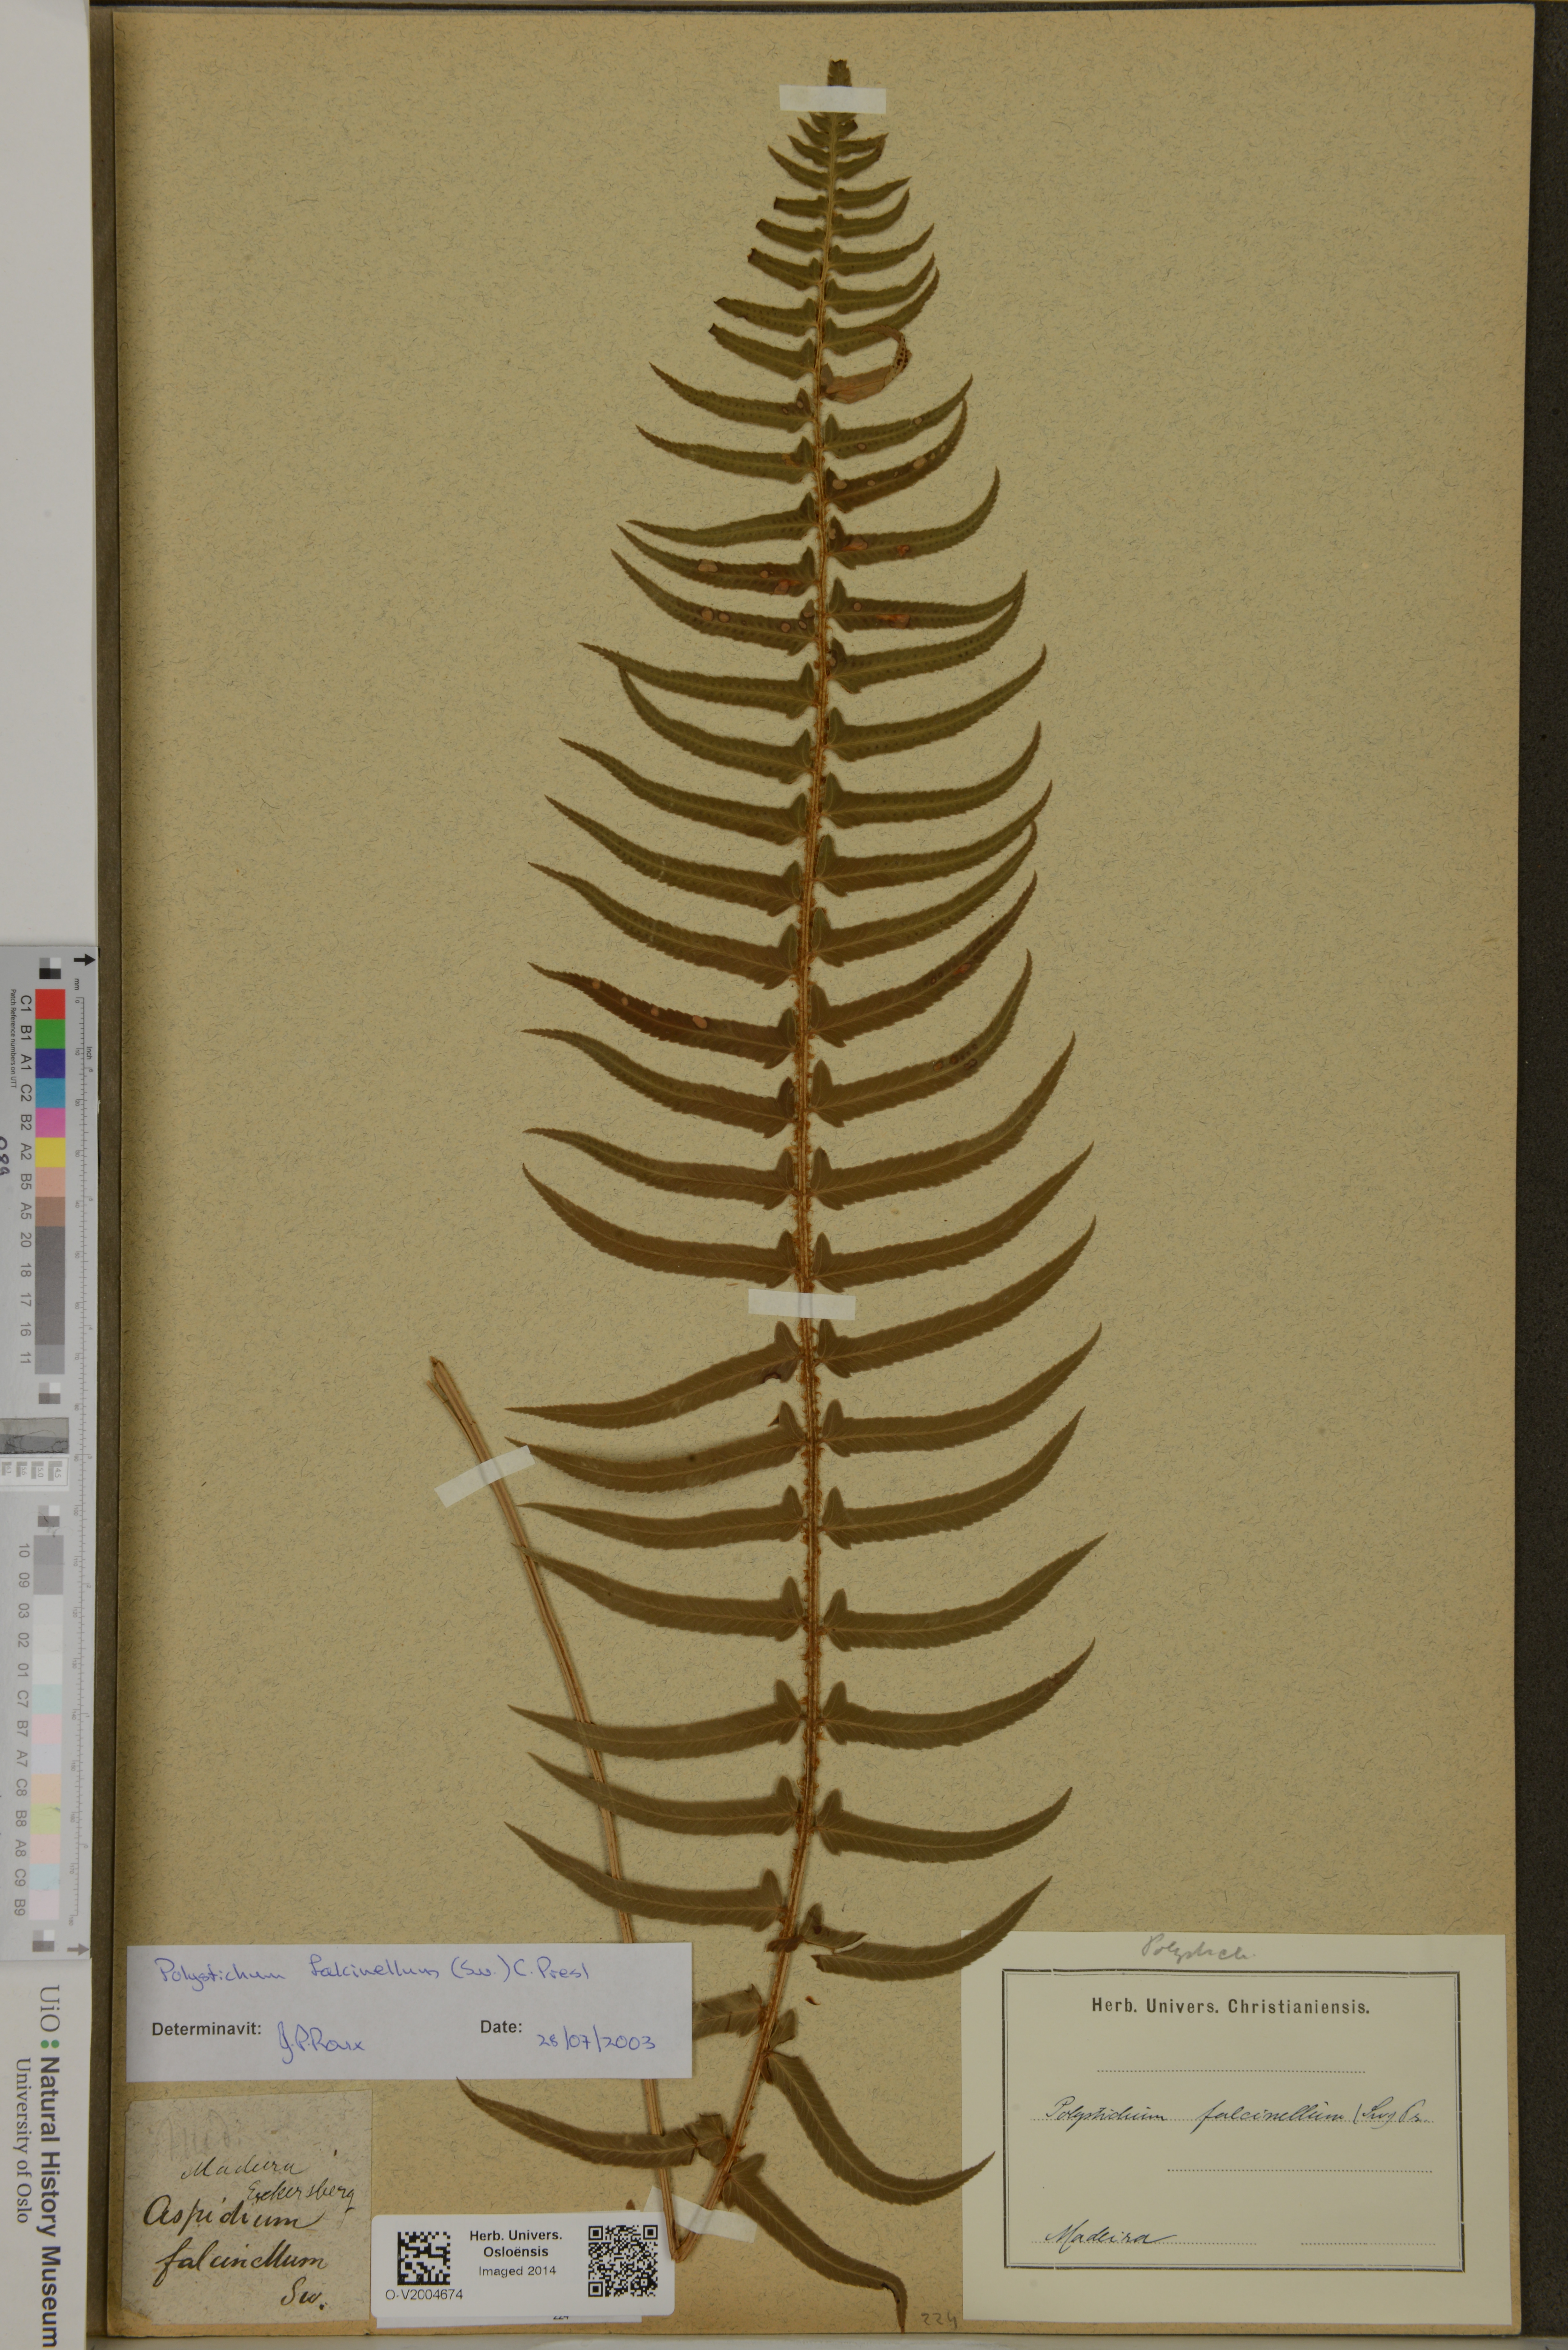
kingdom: Plantae
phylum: Tracheophyta
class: Polypodiopsida
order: Polypodiales
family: Dryopteridaceae
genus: Polystichum
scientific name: Polystichum falcinellum
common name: Madeira sword-fern
